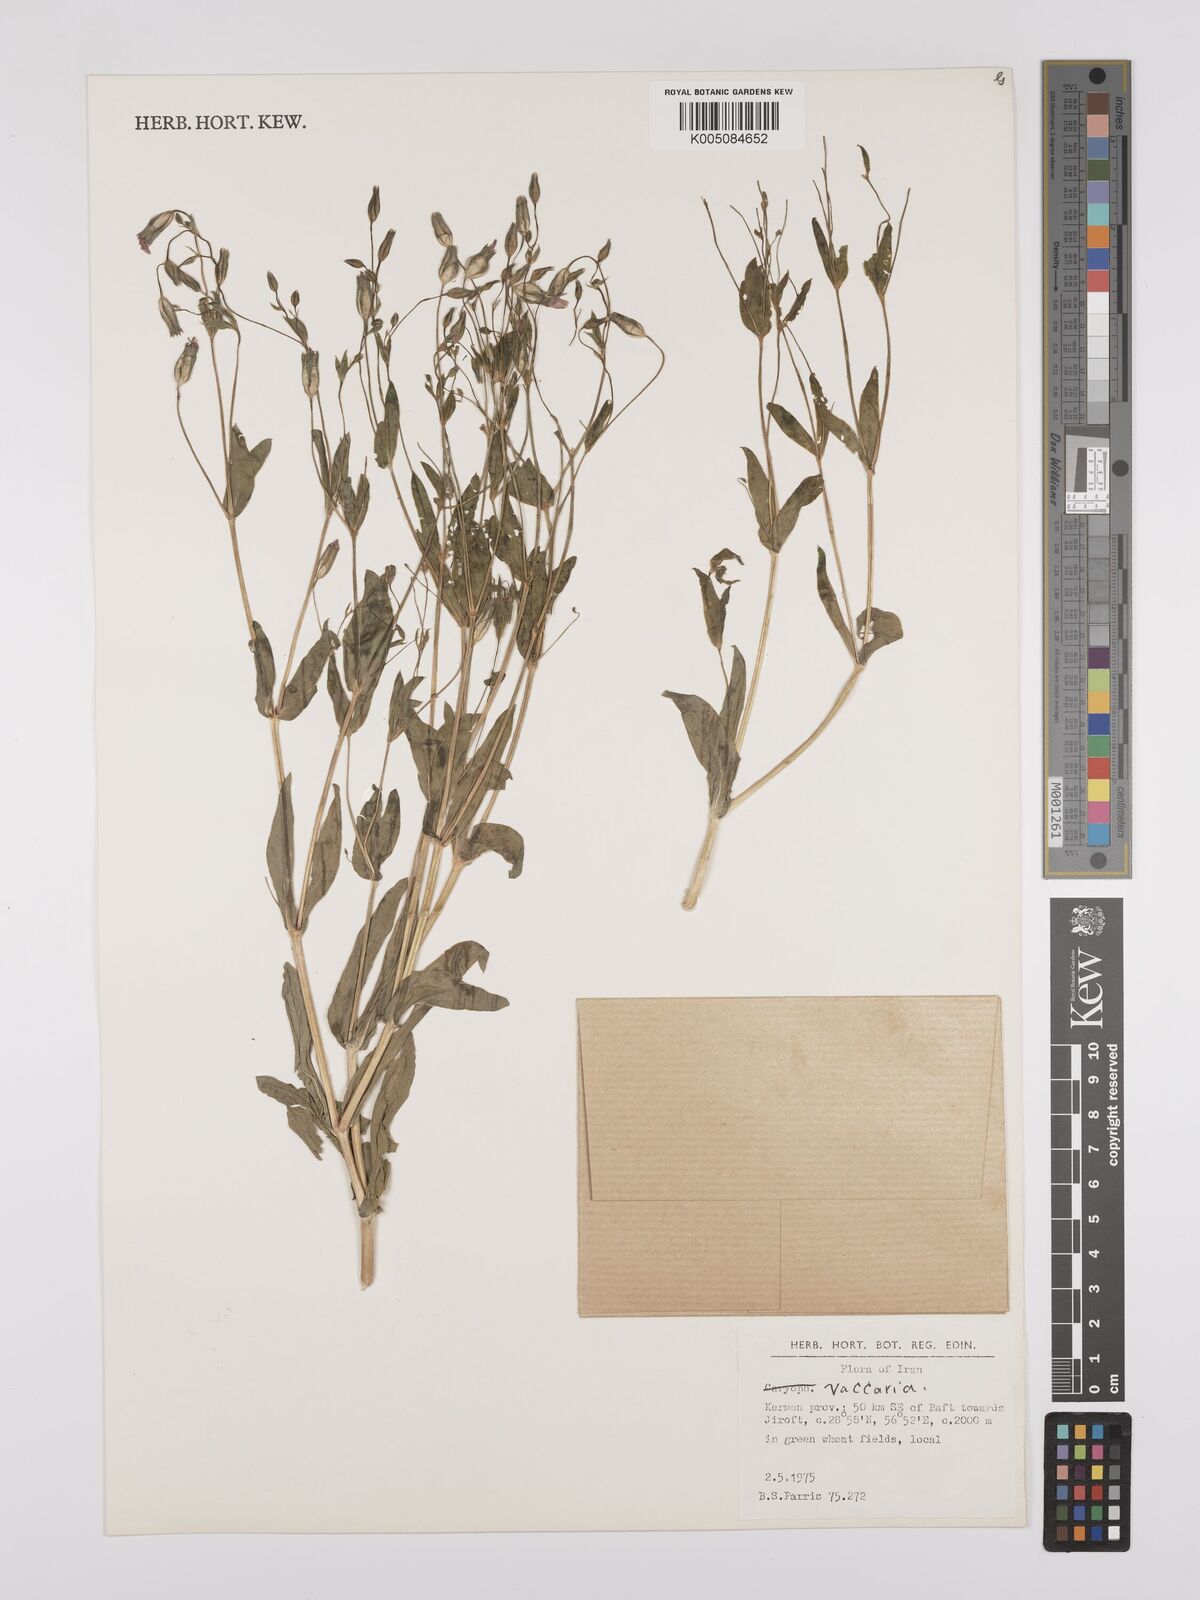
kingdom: Plantae
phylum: Tracheophyta
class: Magnoliopsida
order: Caryophyllales
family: Caryophyllaceae
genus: Vaccaria
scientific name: Vaccaria
